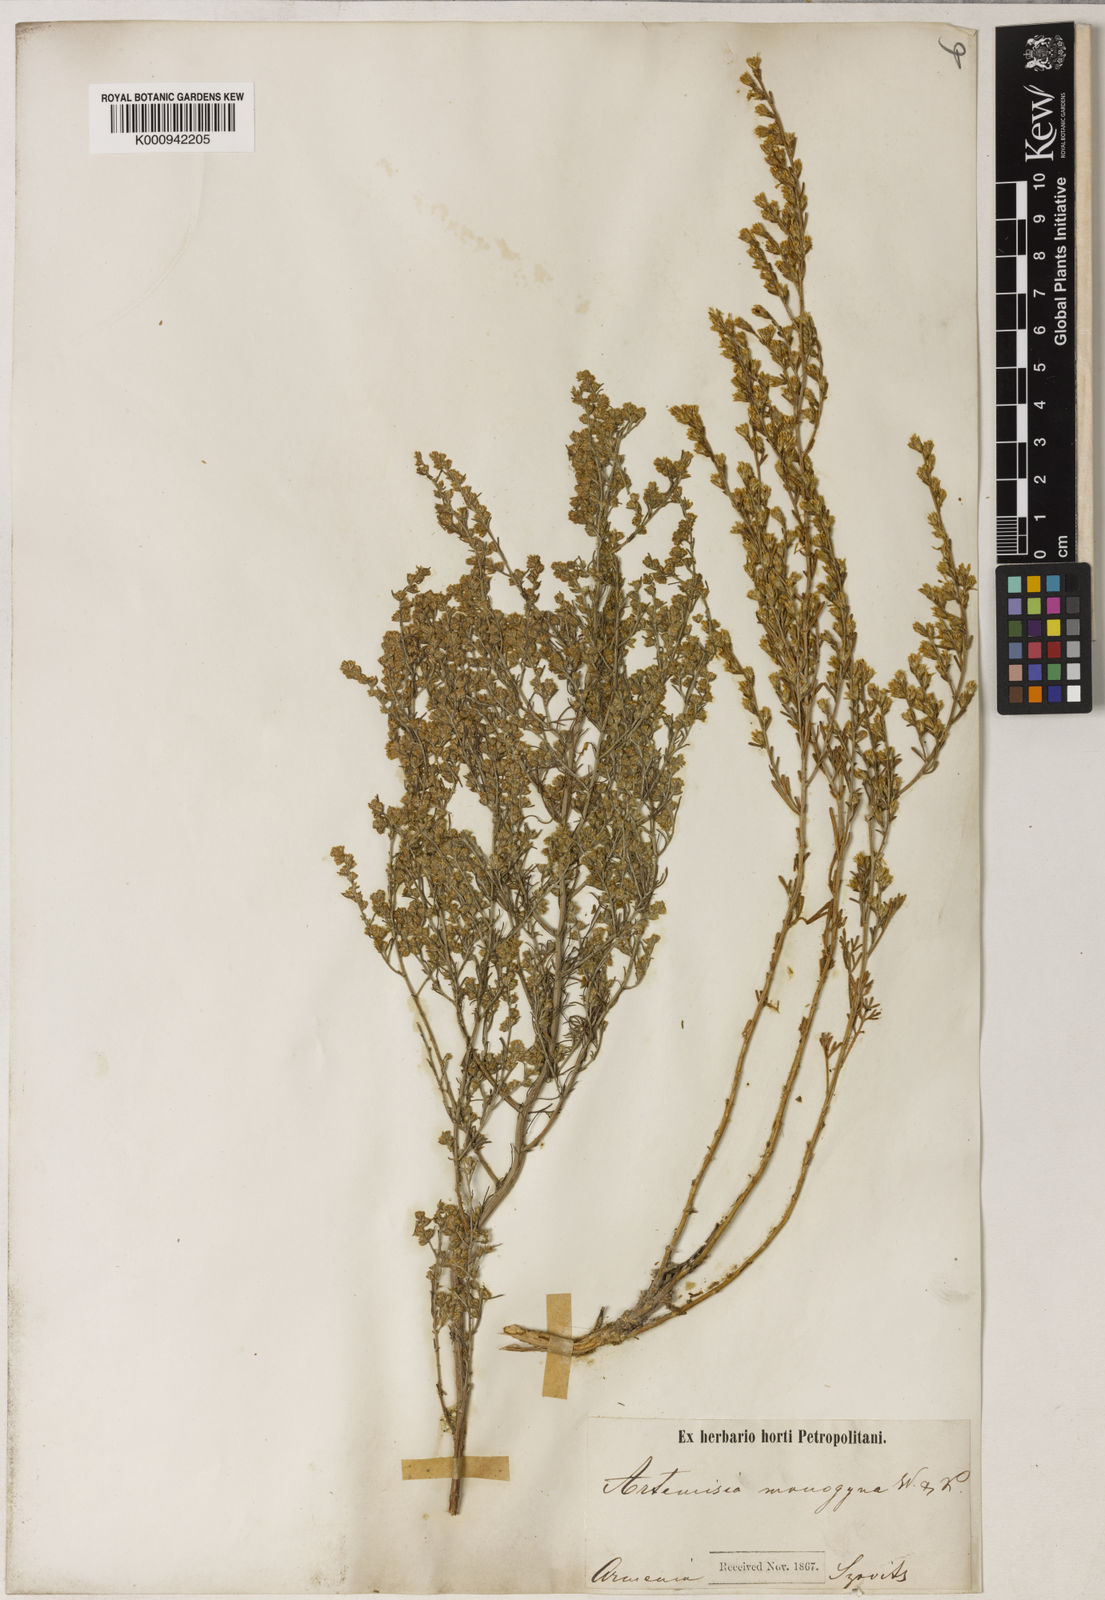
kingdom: Plantae
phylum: Tracheophyta
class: Magnoliopsida
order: Asterales
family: Asteraceae
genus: Artemisia
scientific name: Artemisia fragrans
